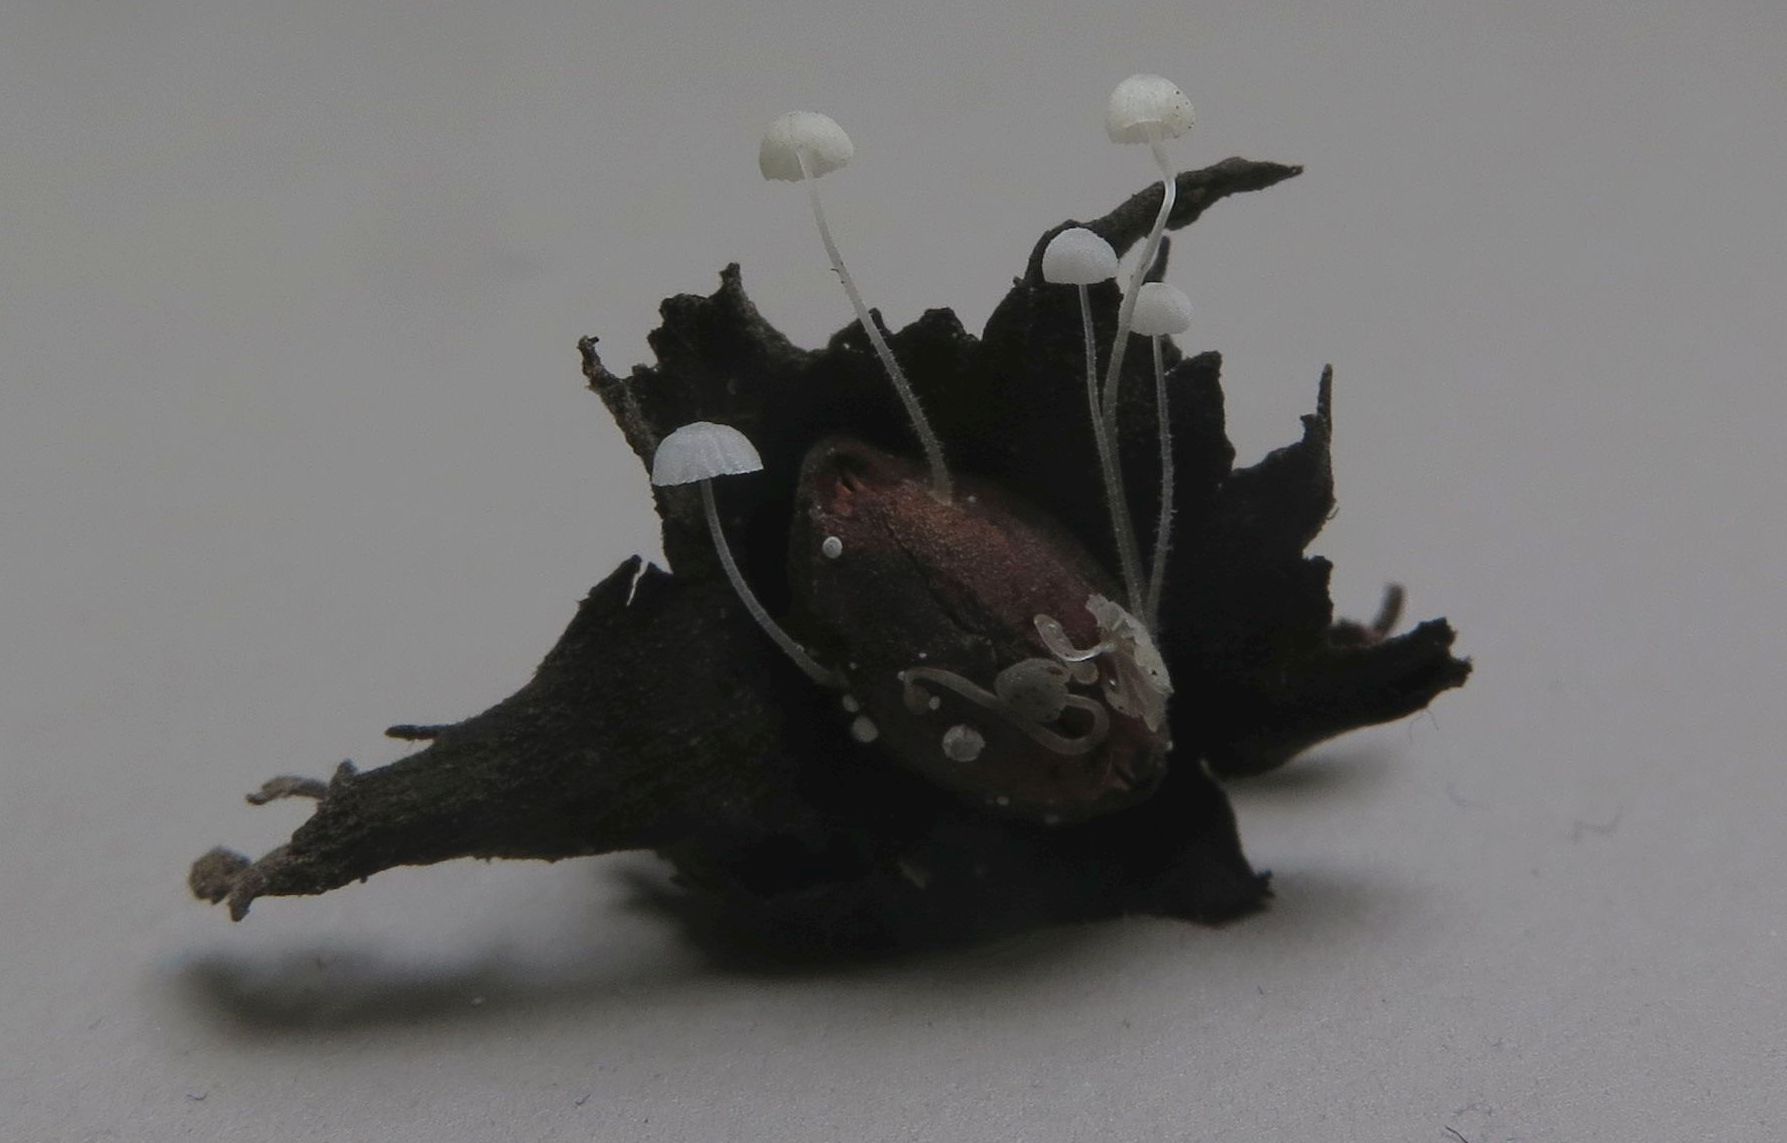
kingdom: Fungi
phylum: Basidiomycota
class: Agaricomycetes
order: Agaricales
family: Mycenaceae
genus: Mycena
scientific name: Mycena tenerrima
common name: pudret huesvamp
